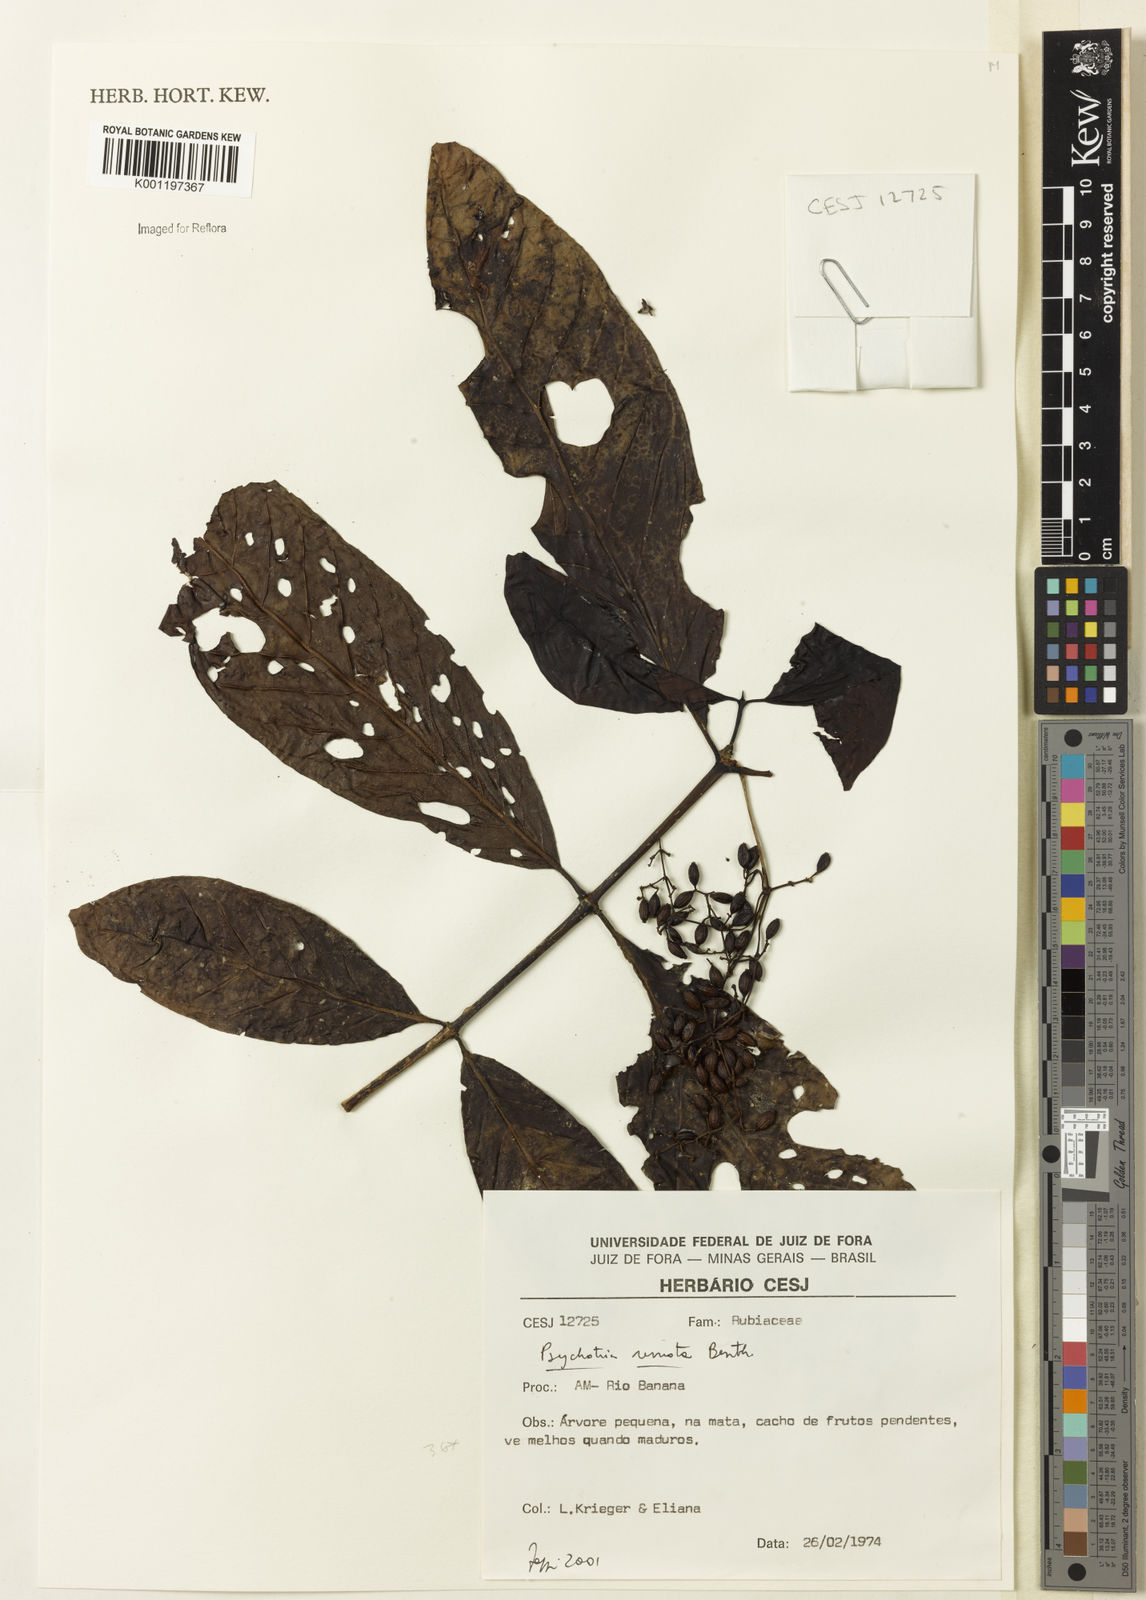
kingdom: Plantae
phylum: Tracheophyta
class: Magnoliopsida
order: Gentianales
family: Rubiaceae
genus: Psychotria
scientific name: Psychotria remota
